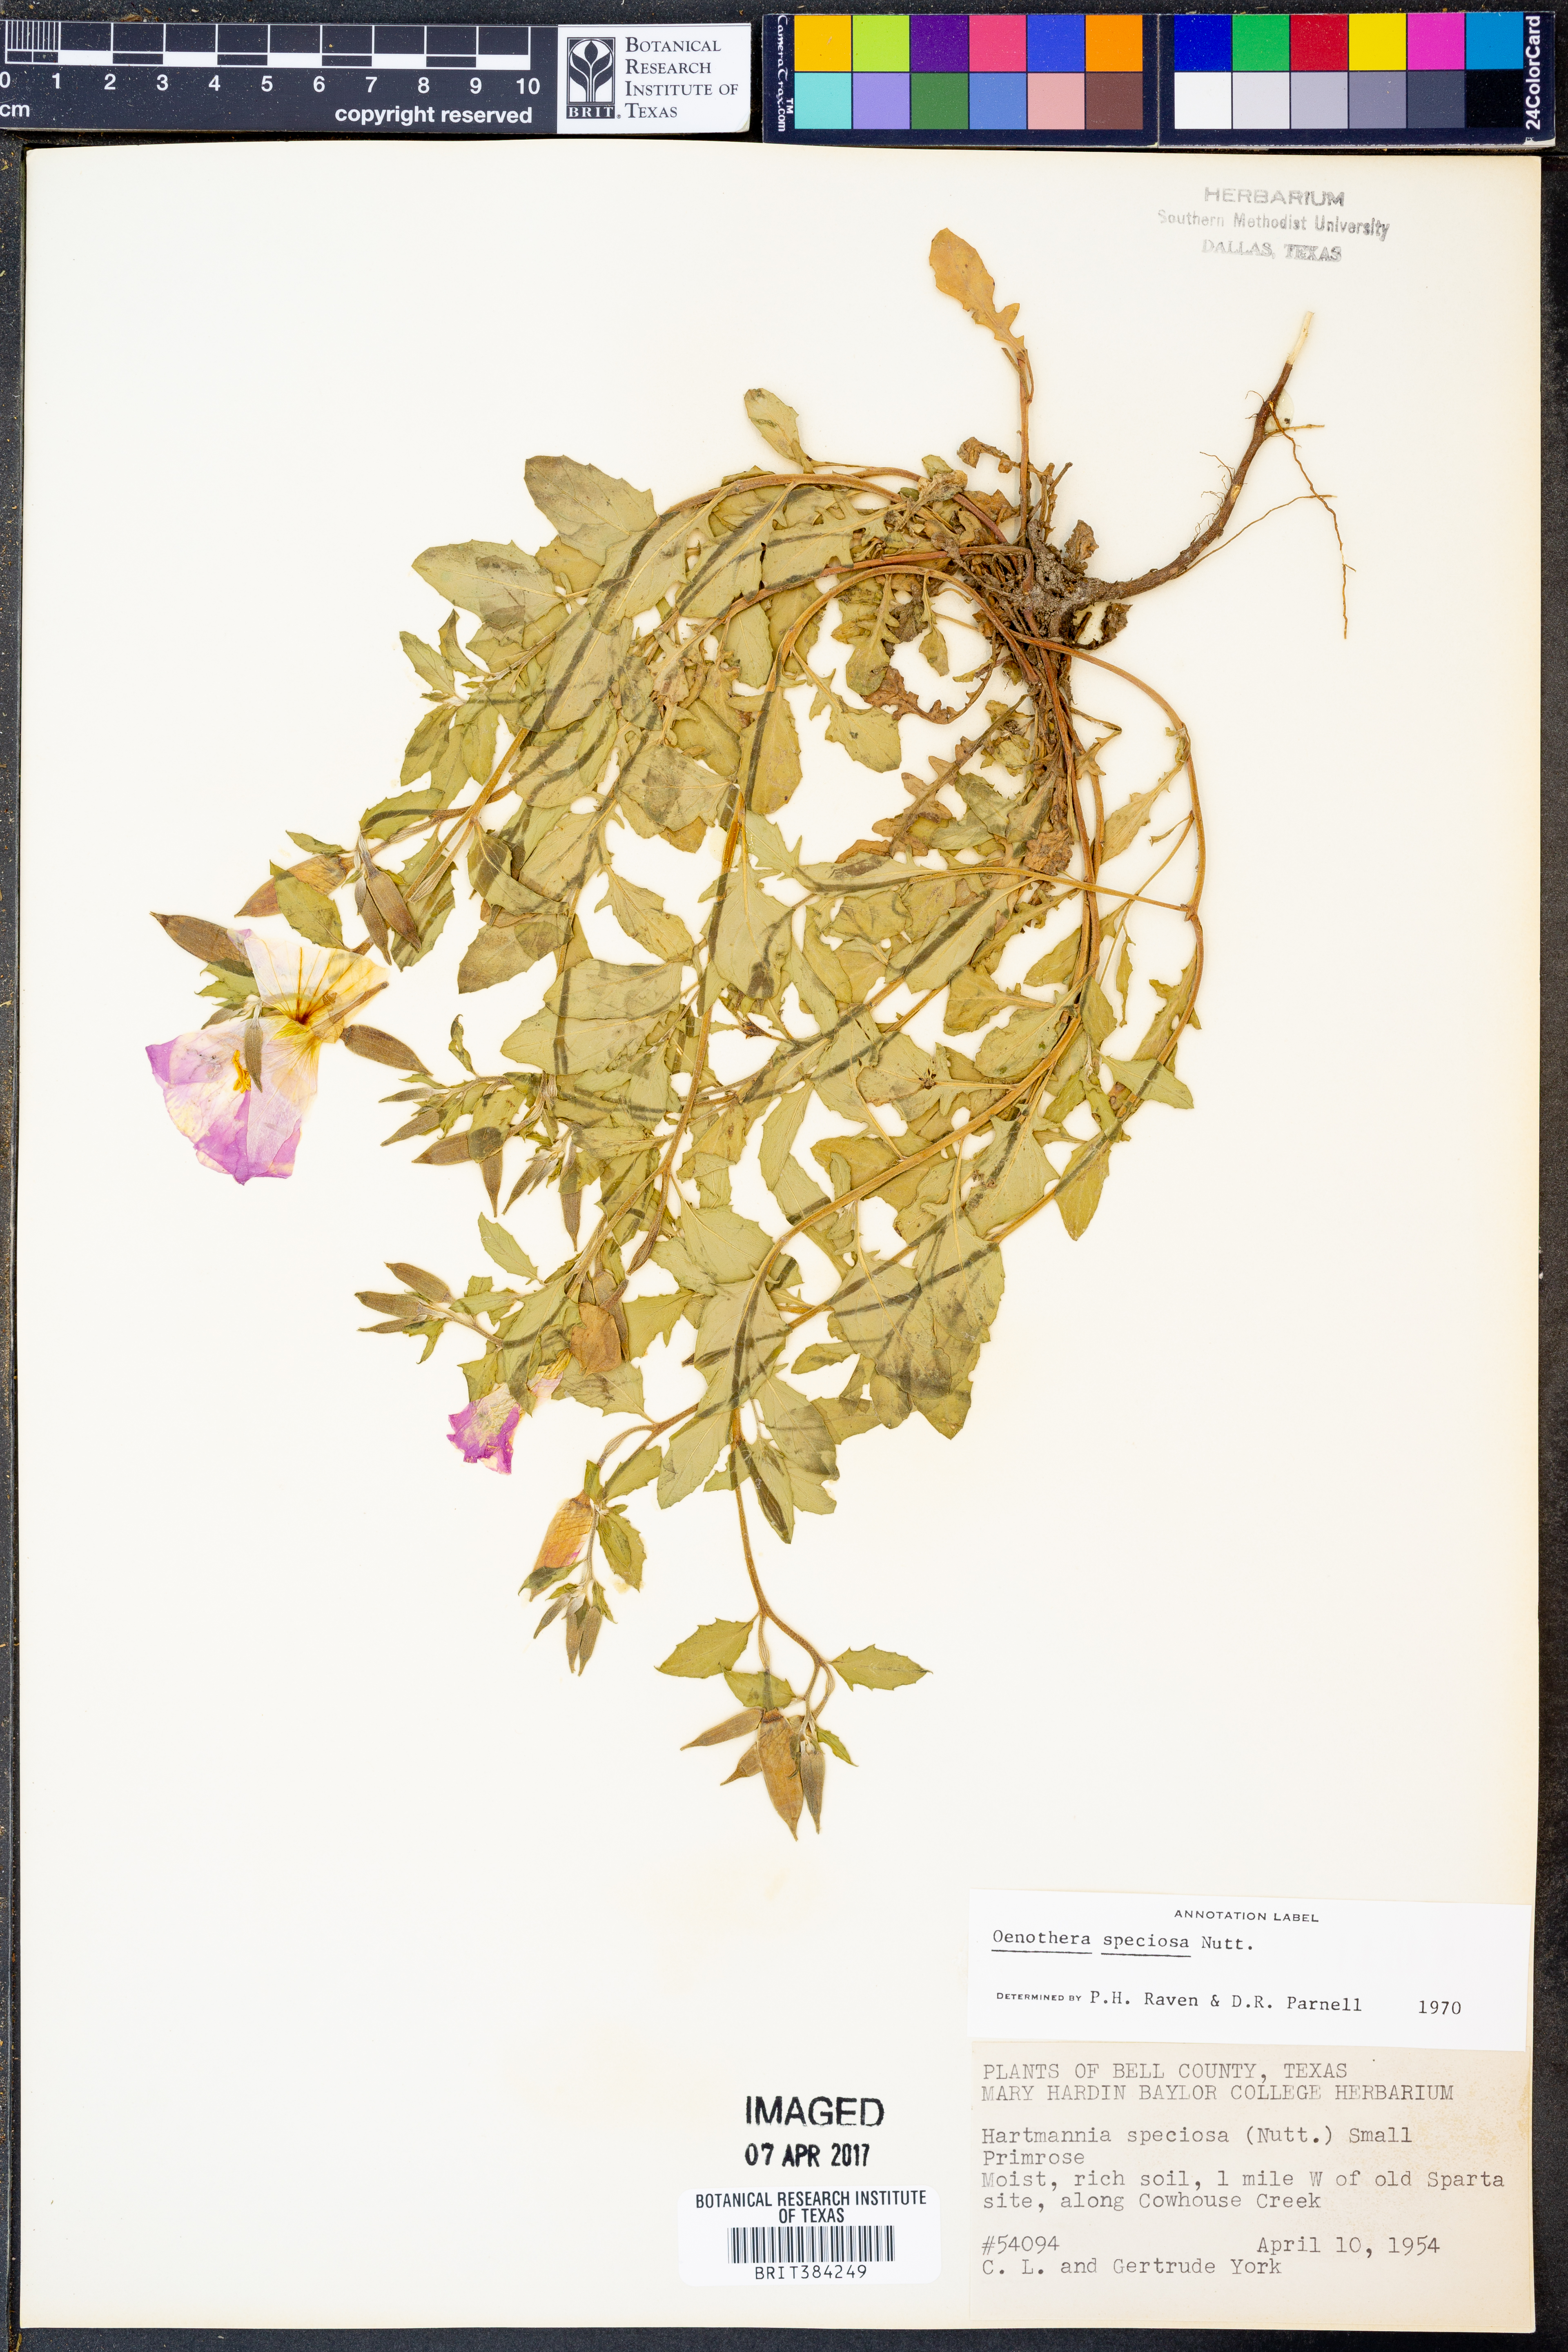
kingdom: Plantae
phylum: Tracheophyta
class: Magnoliopsida
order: Myrtales
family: Onagraceae
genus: Oenothera
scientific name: Oenothera speciosa
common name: White evening-primrose
